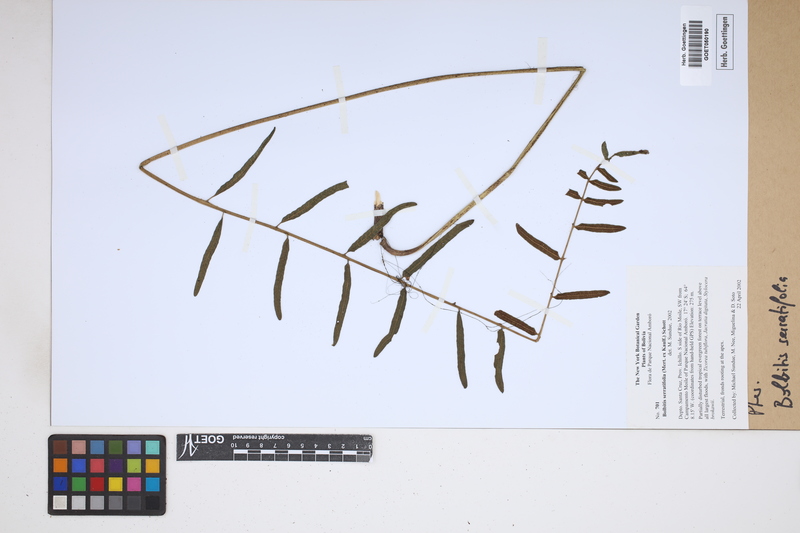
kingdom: Plantae
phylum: Tracheophyta
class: Polypodiopsida
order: Polypodiales
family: Dryopteridaceae
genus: Bolbitis
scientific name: Bolbitis serratifolia
